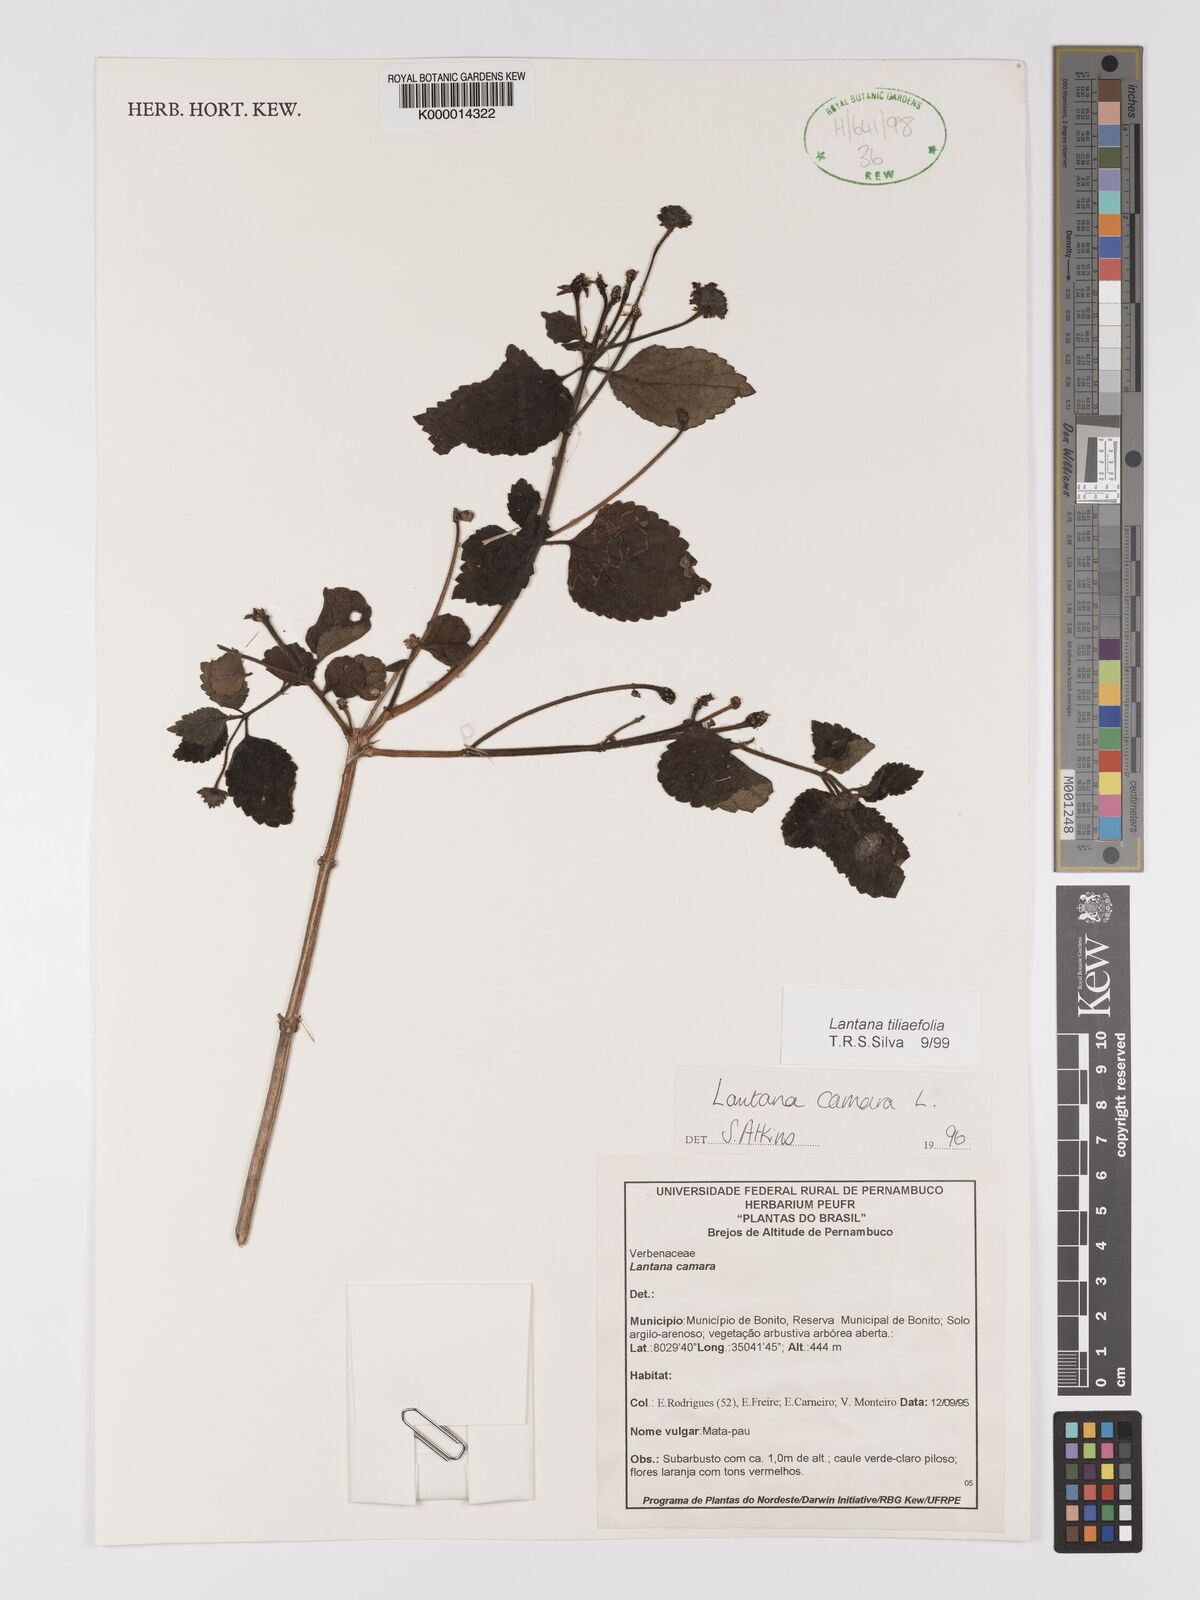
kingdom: Plantae
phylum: Tracheophyta
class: Magnoliopsida
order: Lamiales
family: Verbenaceae
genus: Lantana
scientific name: Lantana
